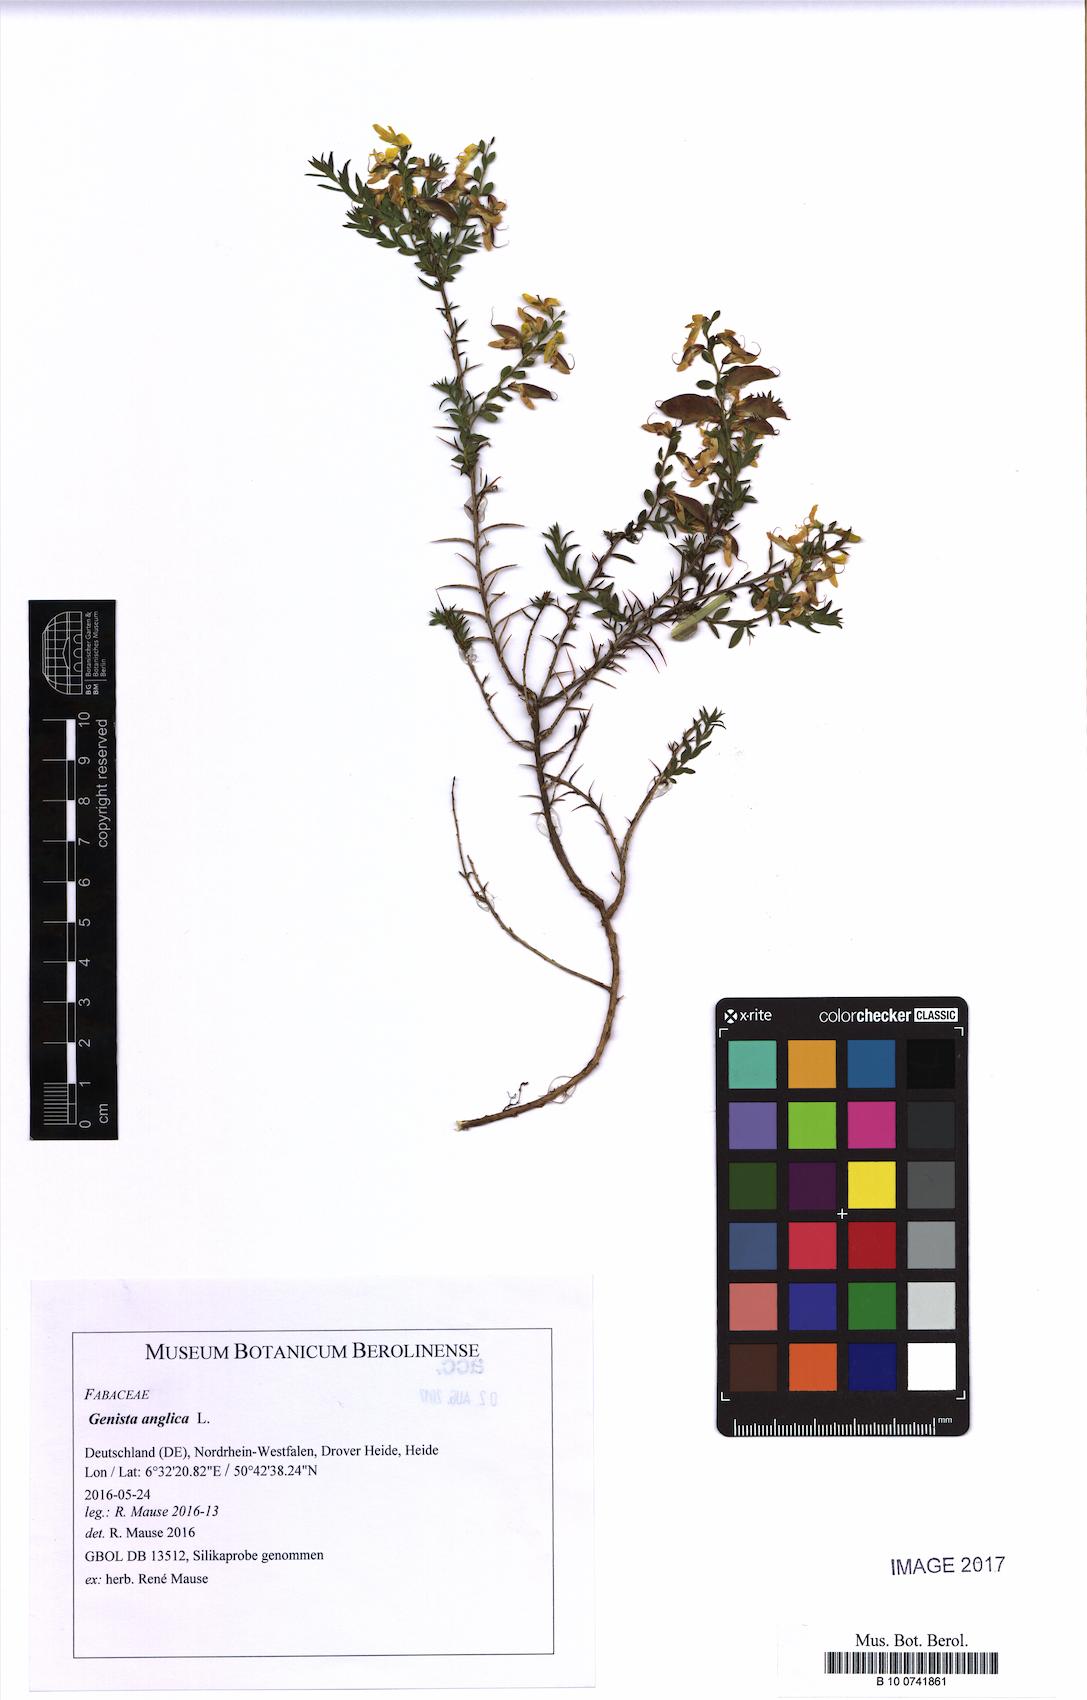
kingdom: Plantae
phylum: Tracheophyta
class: Magnoliopsida
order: Fabales
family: Fabaceae
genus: Genista
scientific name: Genista anglica
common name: Petty whin
